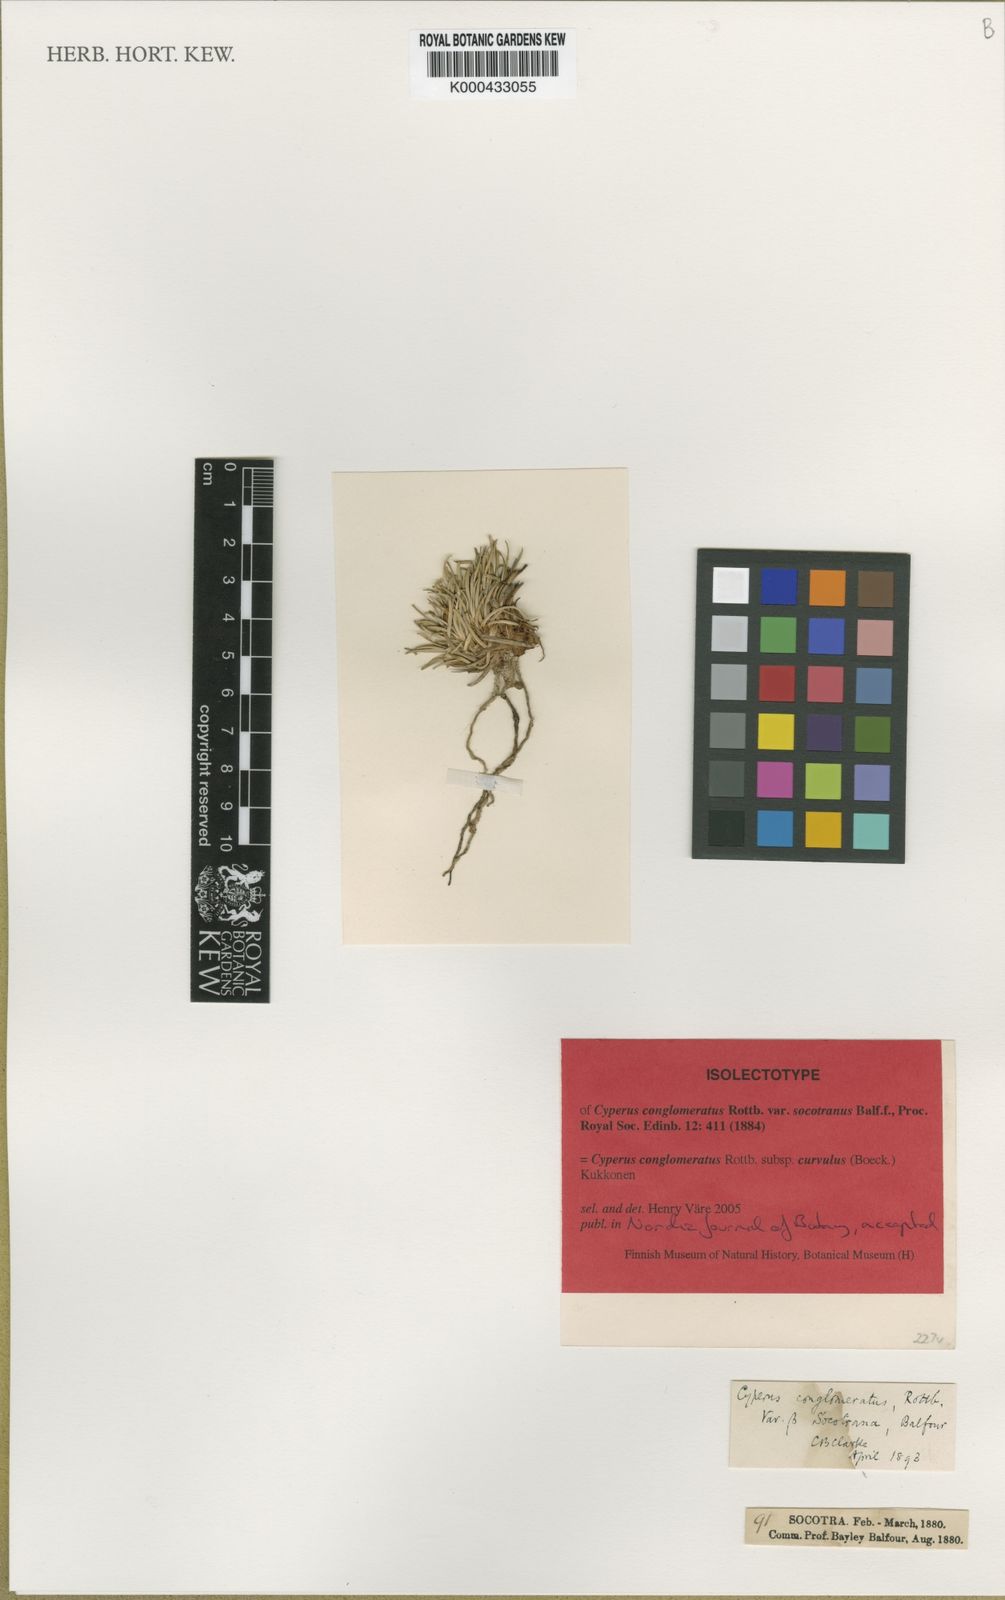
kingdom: Plantae
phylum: Tracheophyta
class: Liliopsida
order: Poales
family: Cyperaceae
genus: Cyperus
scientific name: Cyperus conglomeratus
